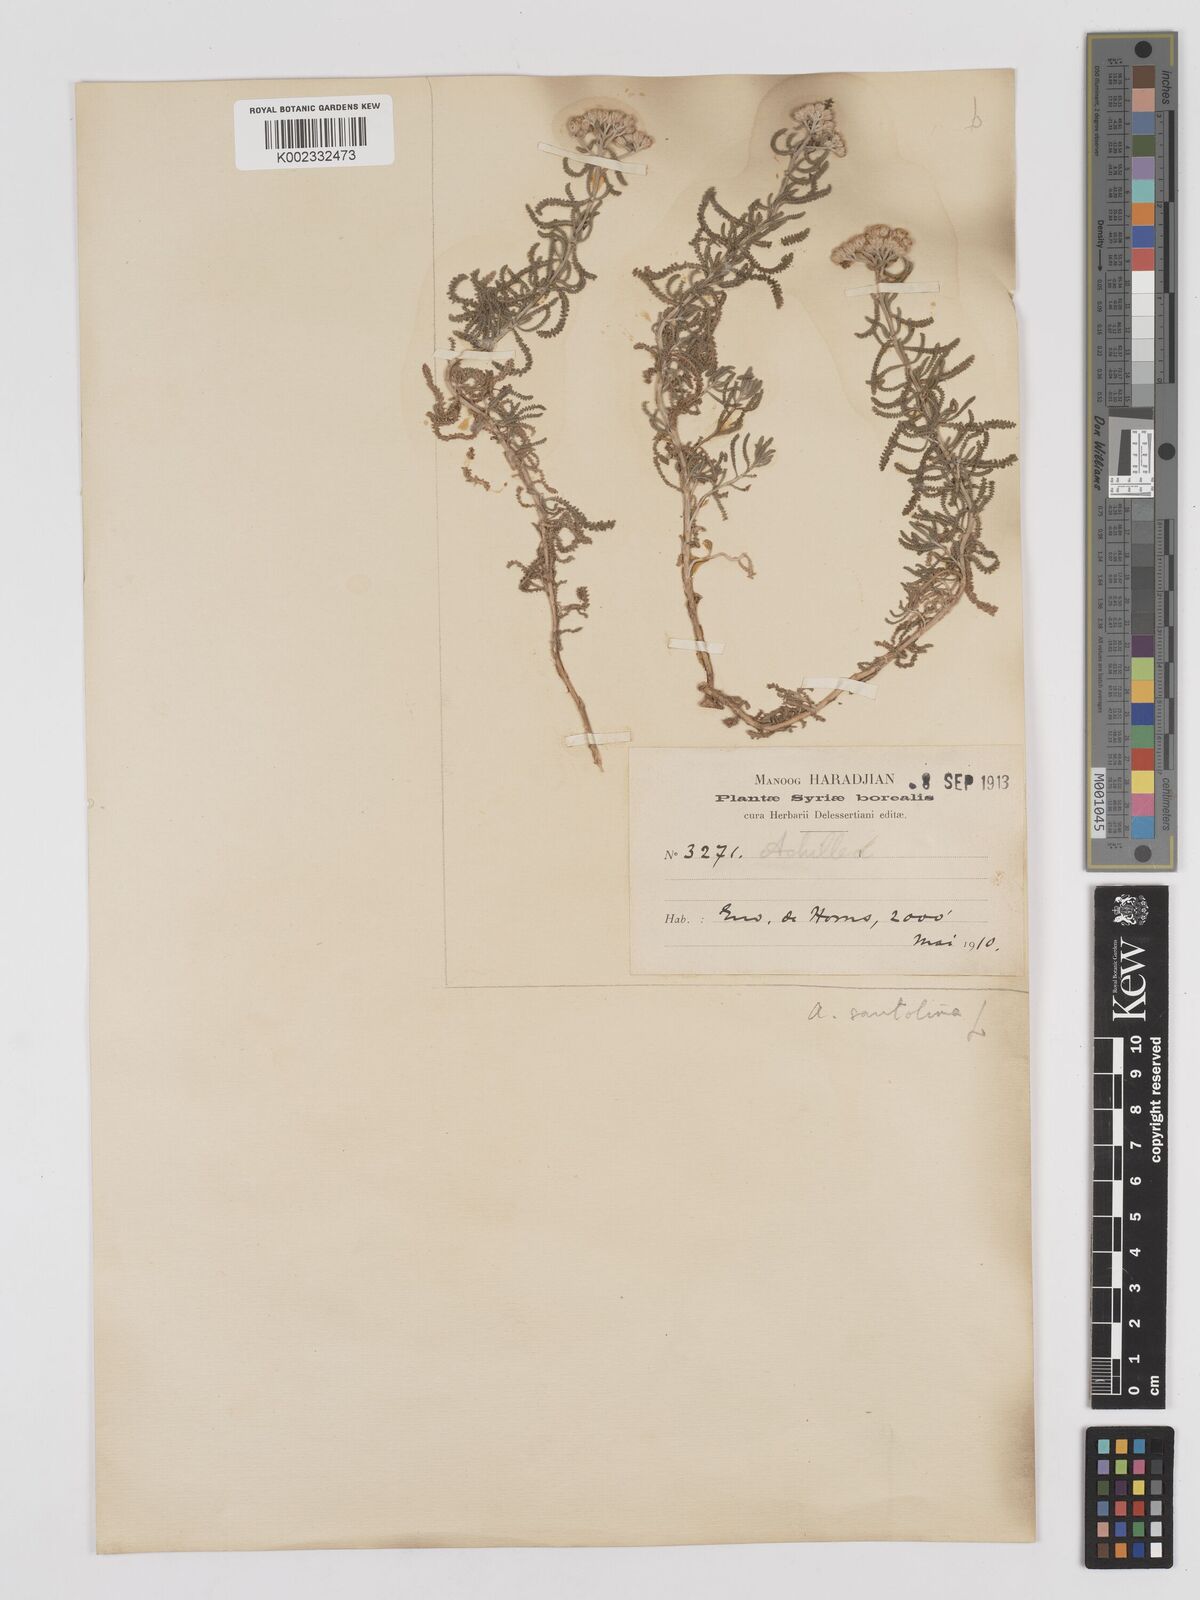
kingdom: Plantae
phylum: Tracheophyta
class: Magnoliopsida
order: Asterales
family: Asteraceae
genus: Achillea
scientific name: Achillea tenuifolia
